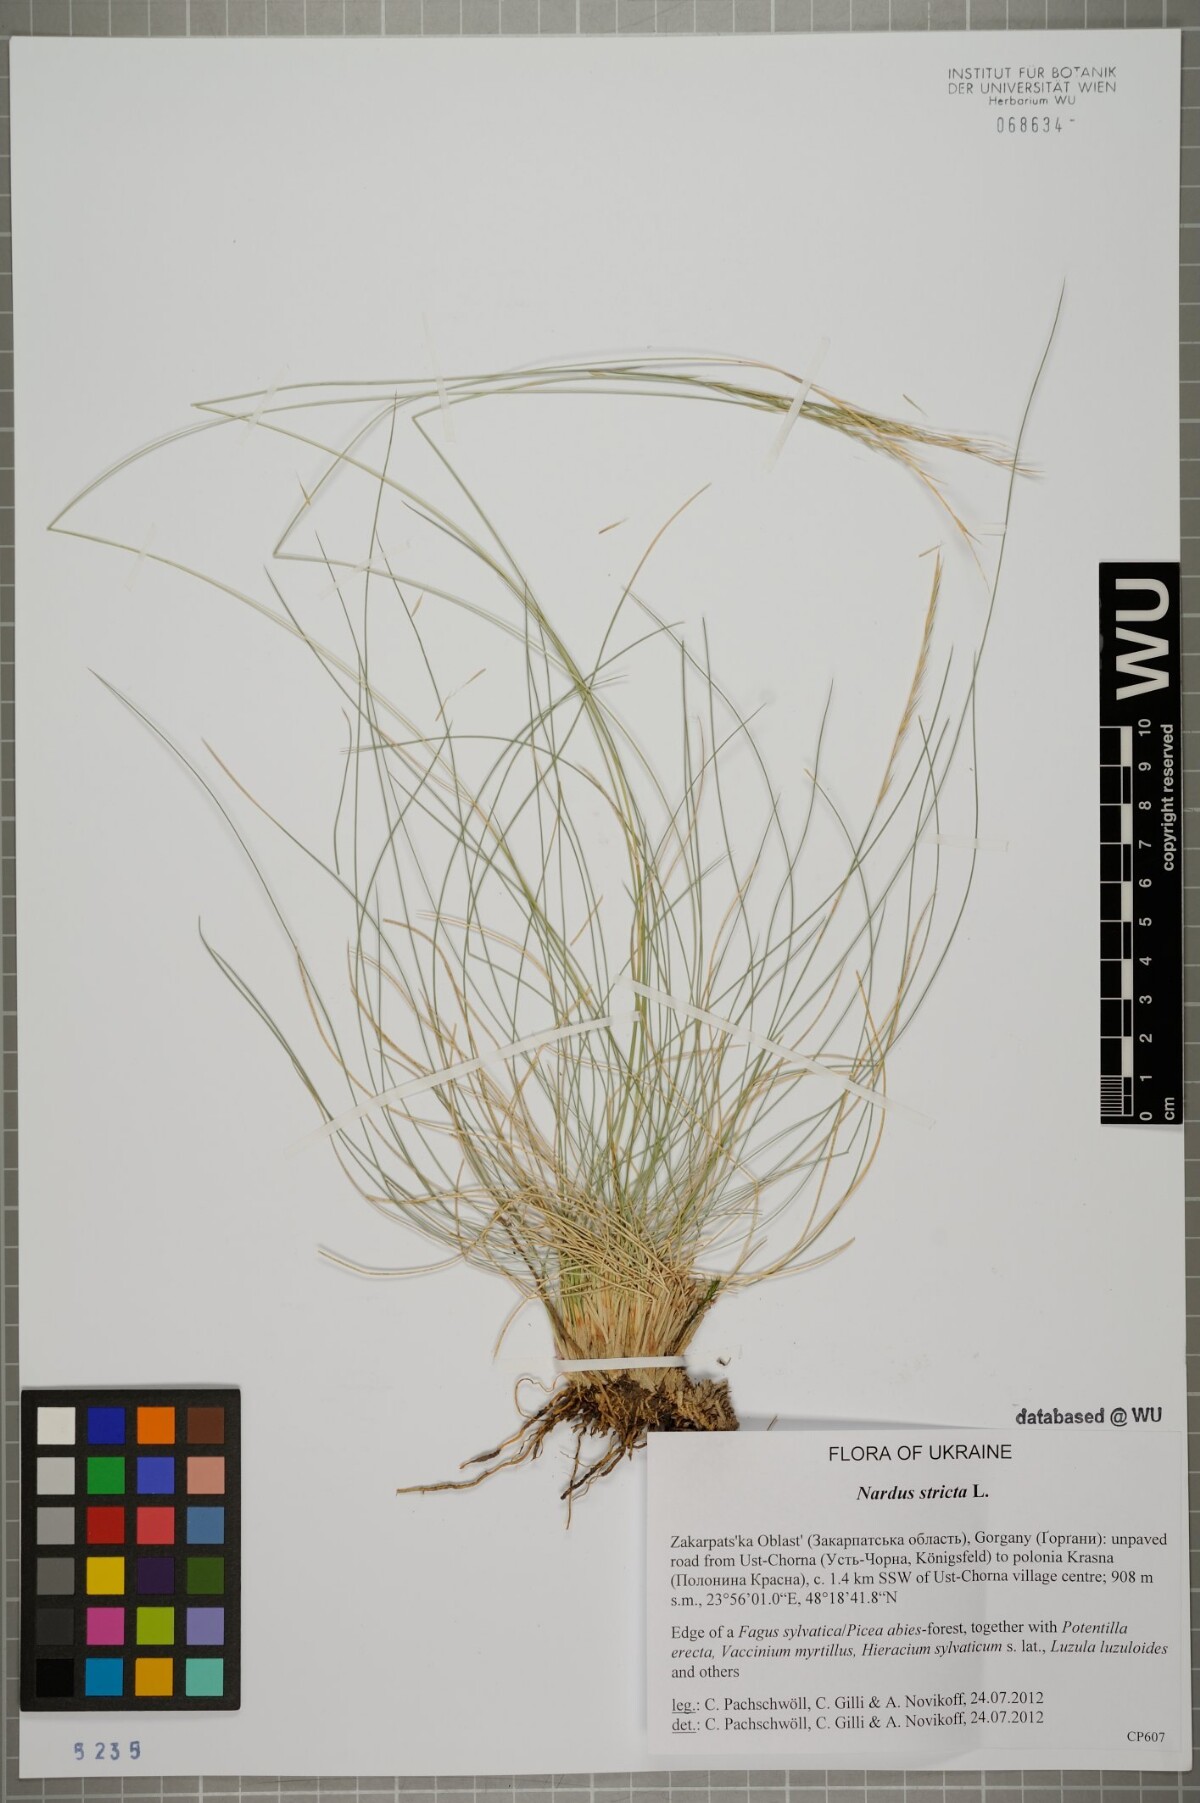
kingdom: Plantae
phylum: Tracheophyta
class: Liliopsida
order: Poales
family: Poaceae
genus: Nardus
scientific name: Nardus stricta
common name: Mat-grass
